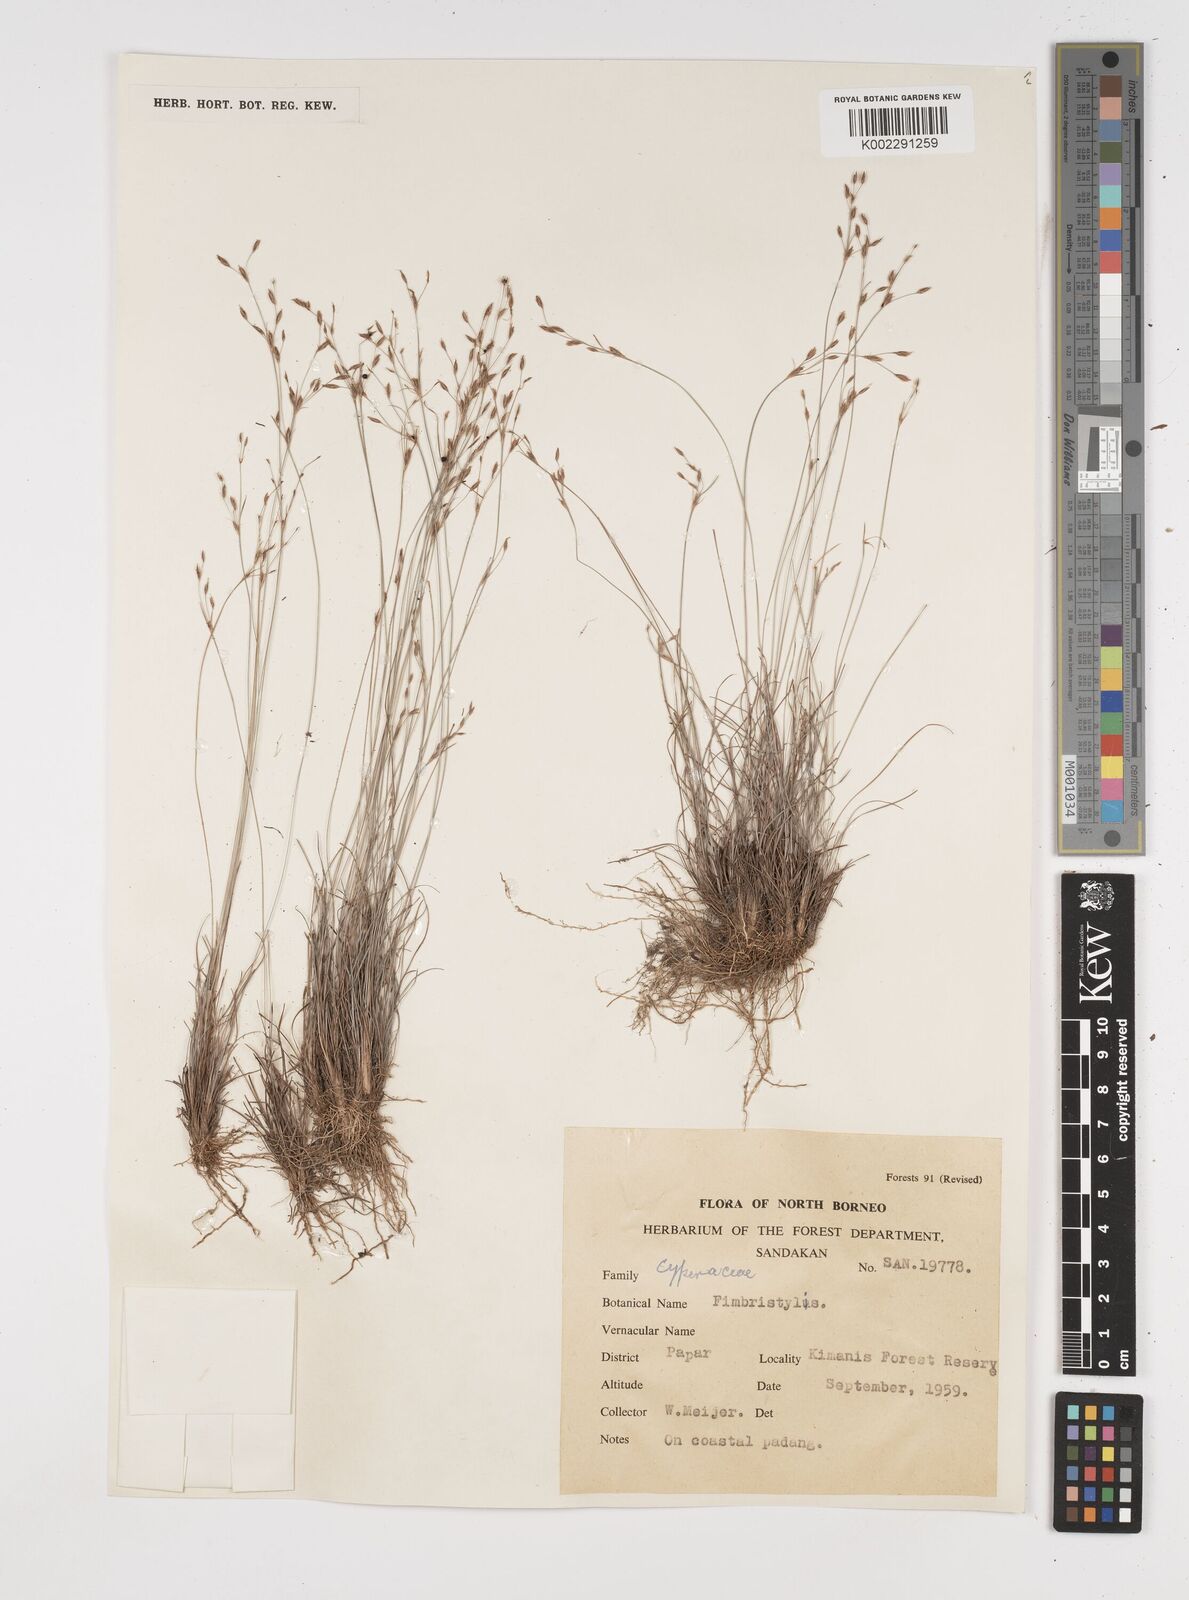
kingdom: Plantae
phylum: Tracheophyta
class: Liliopsida
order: Poales
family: Cyperaceae
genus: Fimbristylis
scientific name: Fimbristylis
